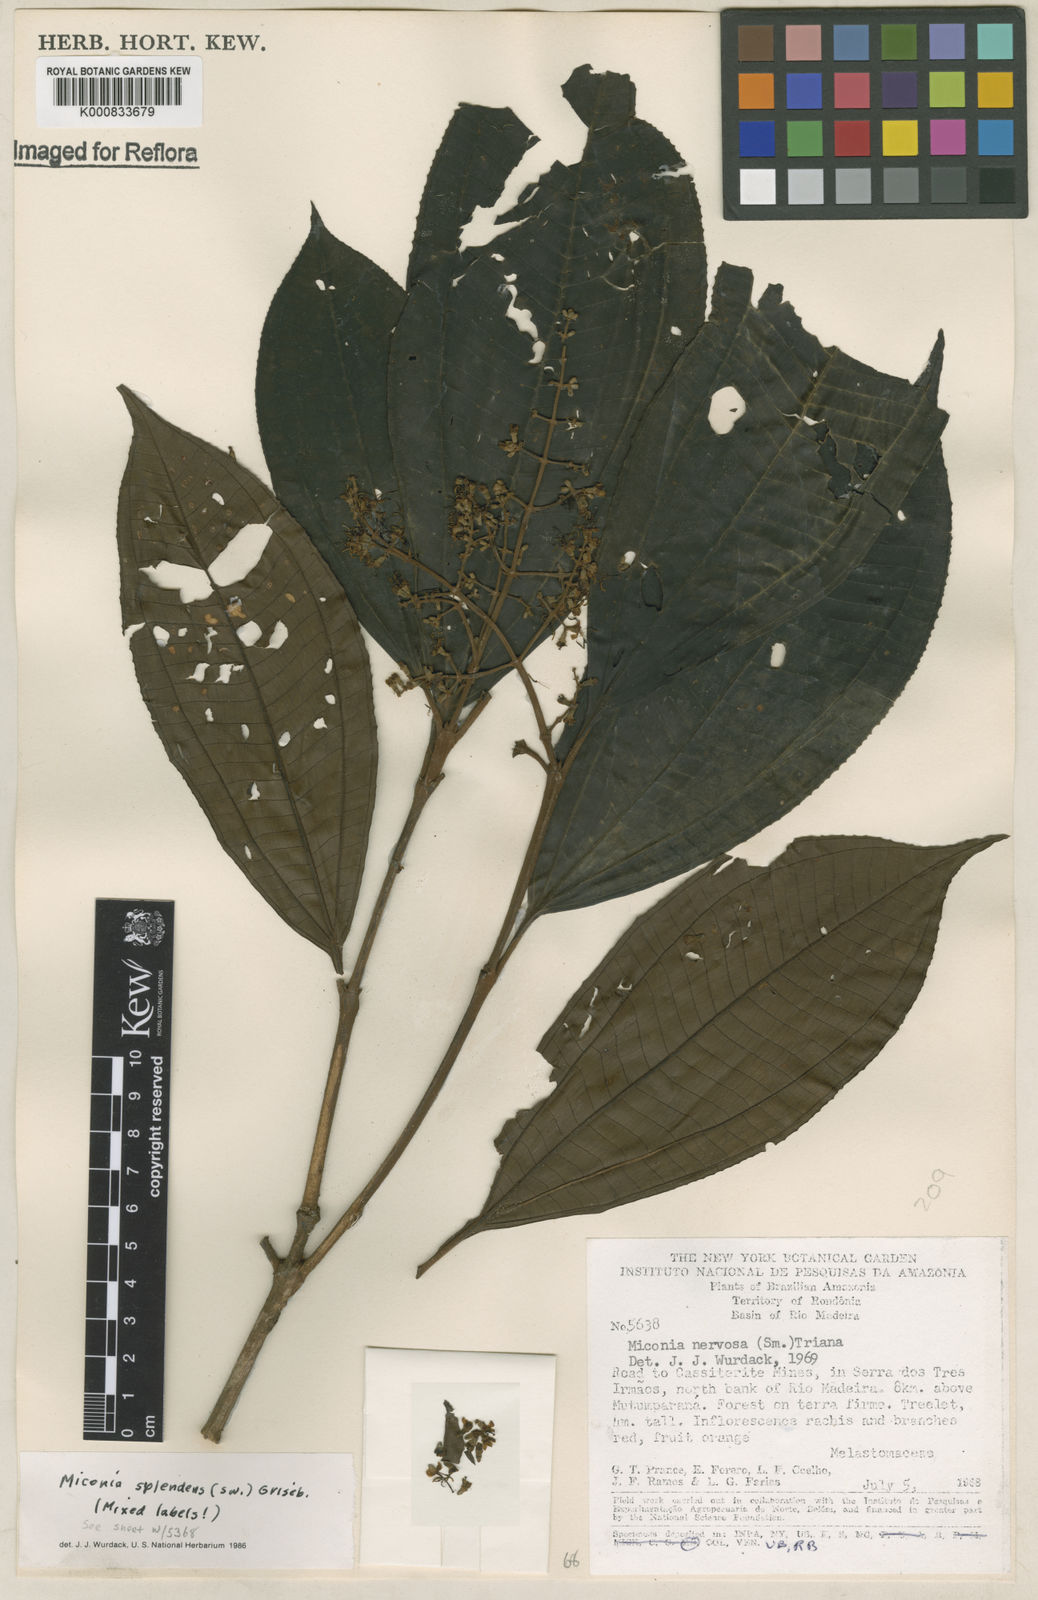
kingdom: Plantae
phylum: Tracheophyta
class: Magnoliopsida
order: Myrtales
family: Melastomataceae
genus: Miconia
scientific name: Miconia nervosa
